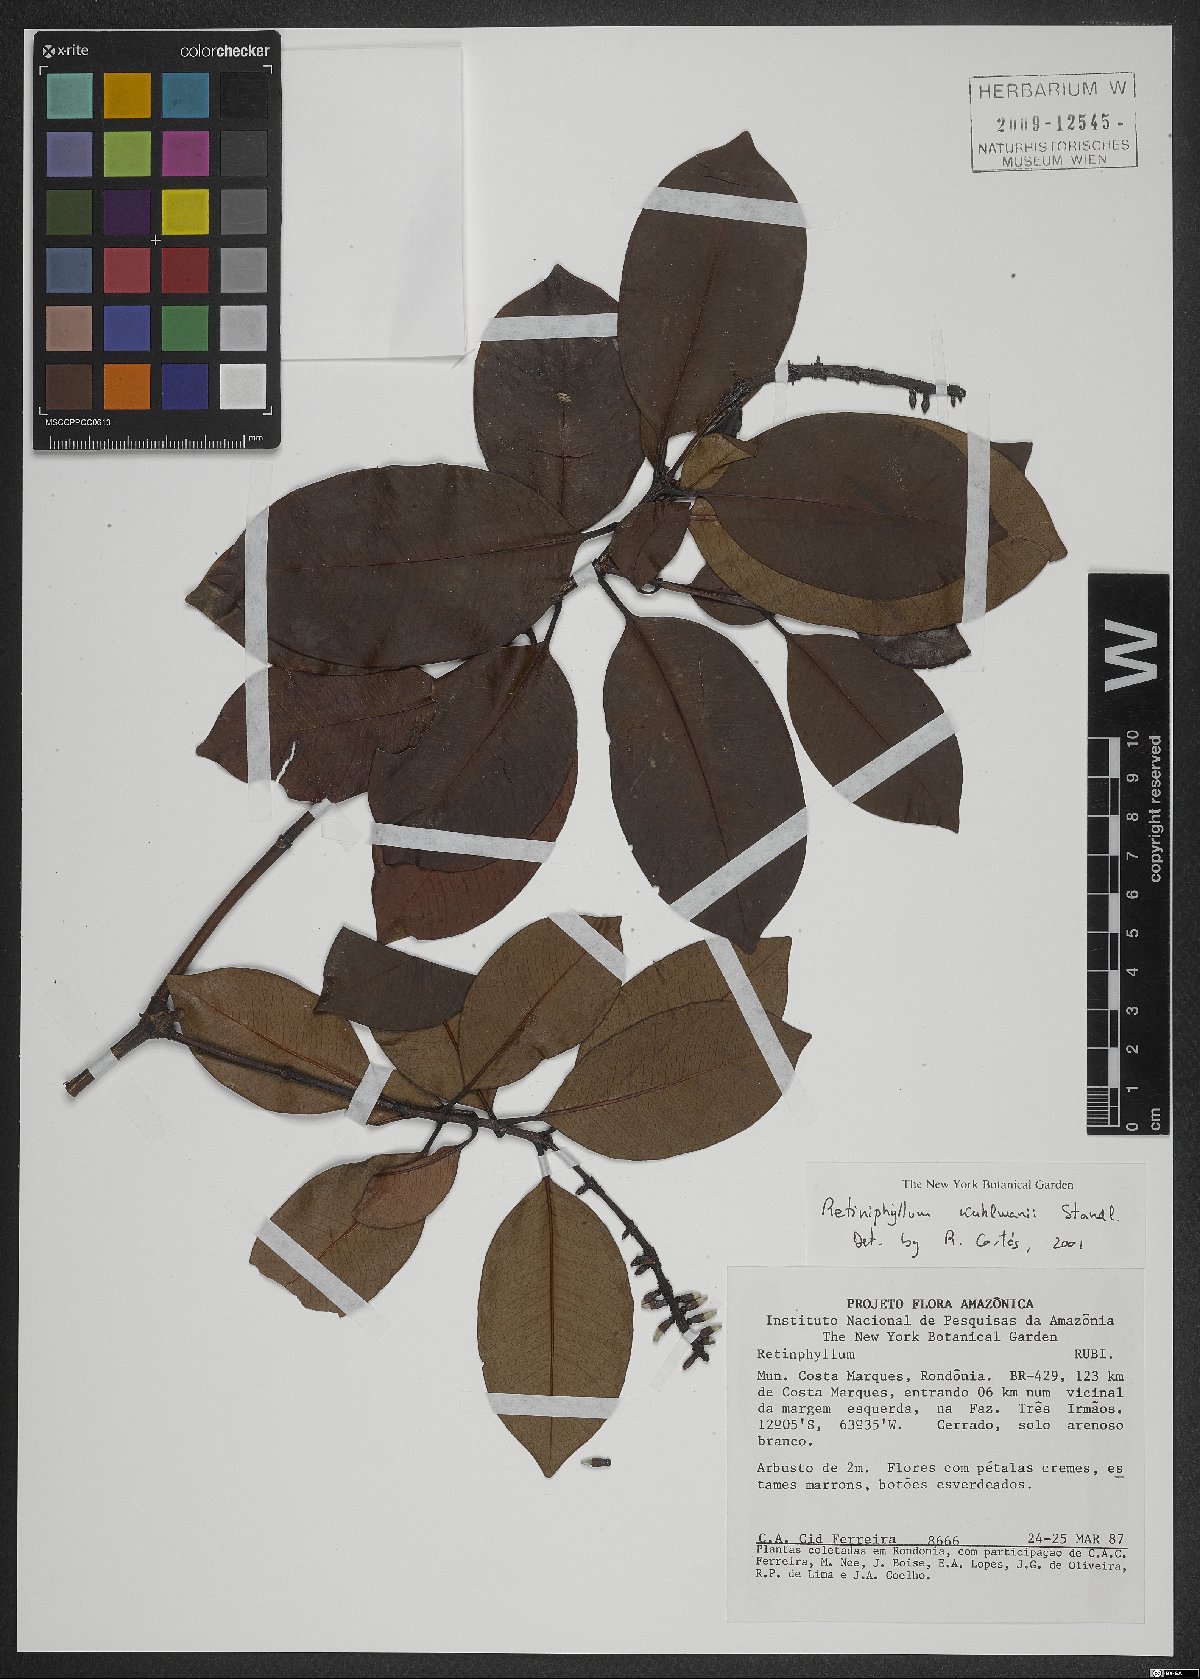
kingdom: Plantae
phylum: Tracheophyta
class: Magnoliopsida
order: Gentianales
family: Rubiaceae
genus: Retiniphyllum
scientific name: Retiniphyllum kuhlmannii
